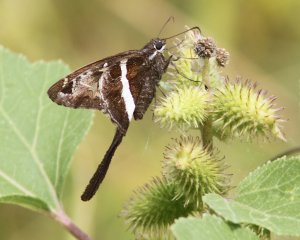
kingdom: Animalia
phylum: Arthropoda
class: Insecta
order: Lepidoptera
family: Hesperiidae
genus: Chioides
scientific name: Chioides catillus
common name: White-striped Longtail
